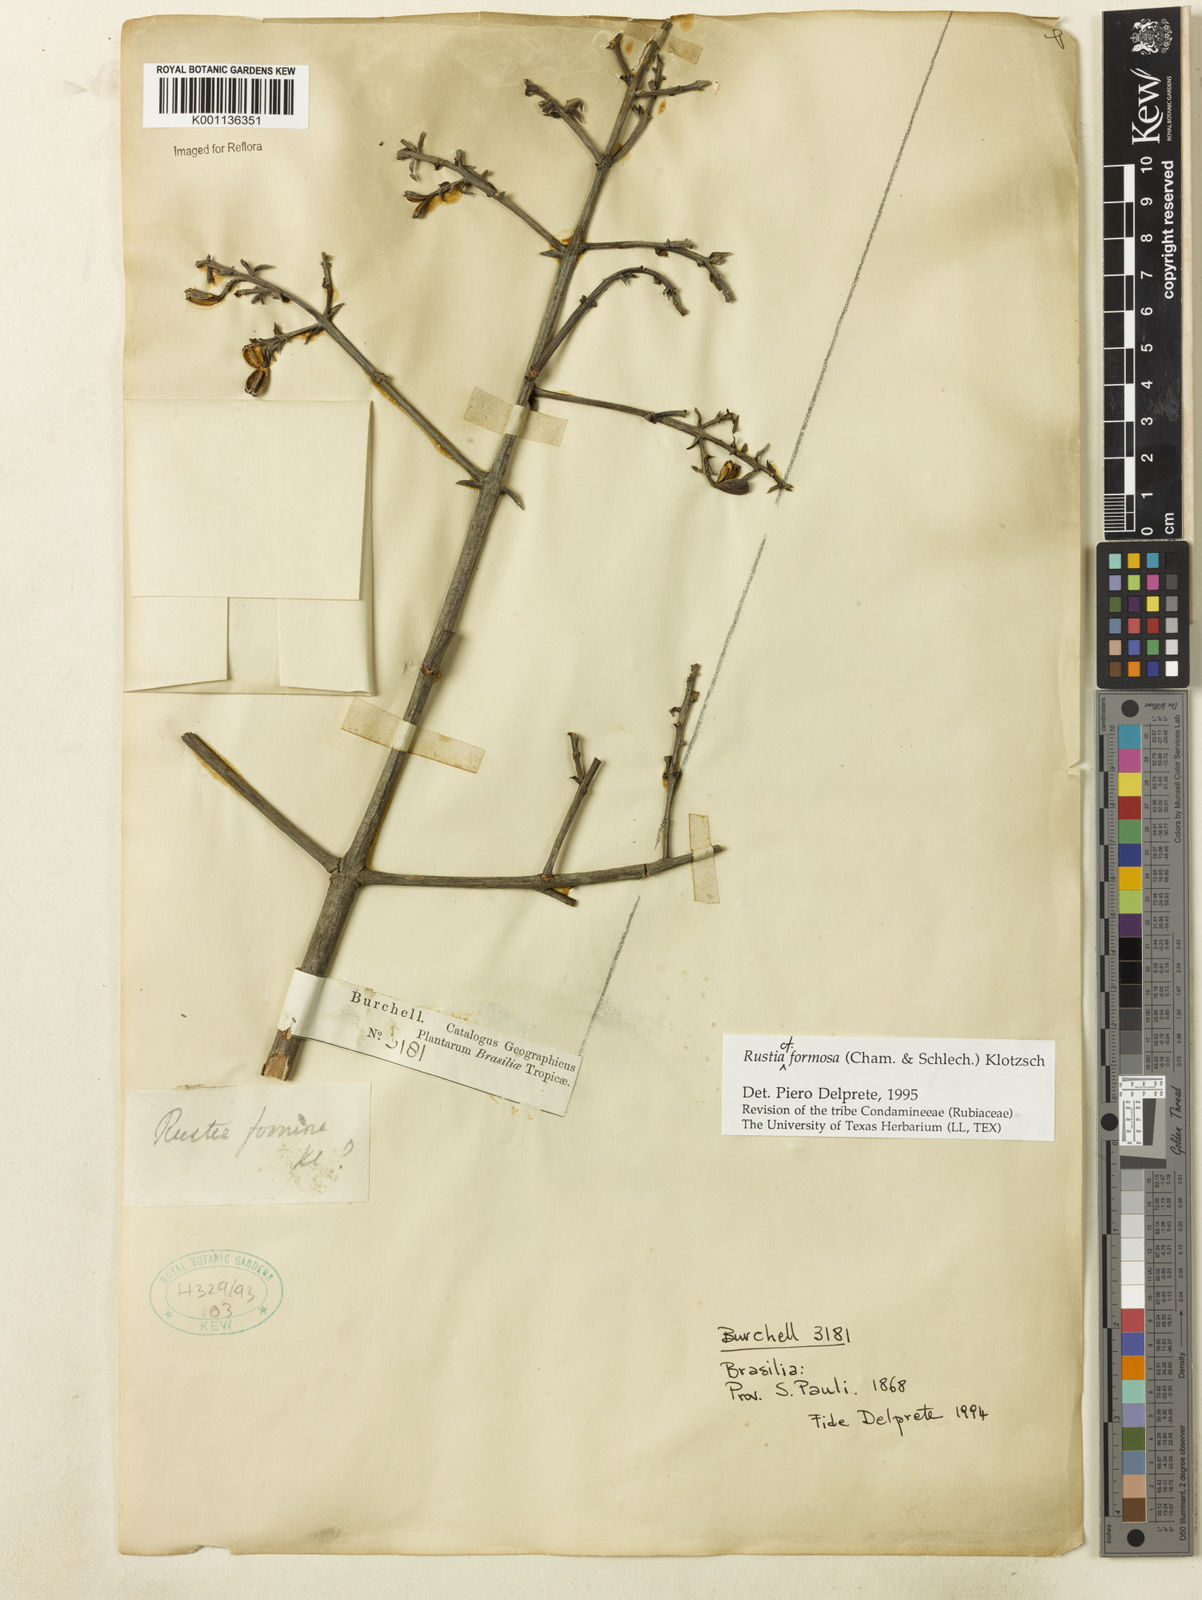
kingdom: Plantae
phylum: Tracheophyta
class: Magnoliopsida
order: Gentianales
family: Rubiaceae
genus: Rustia
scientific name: Rustia formosa
